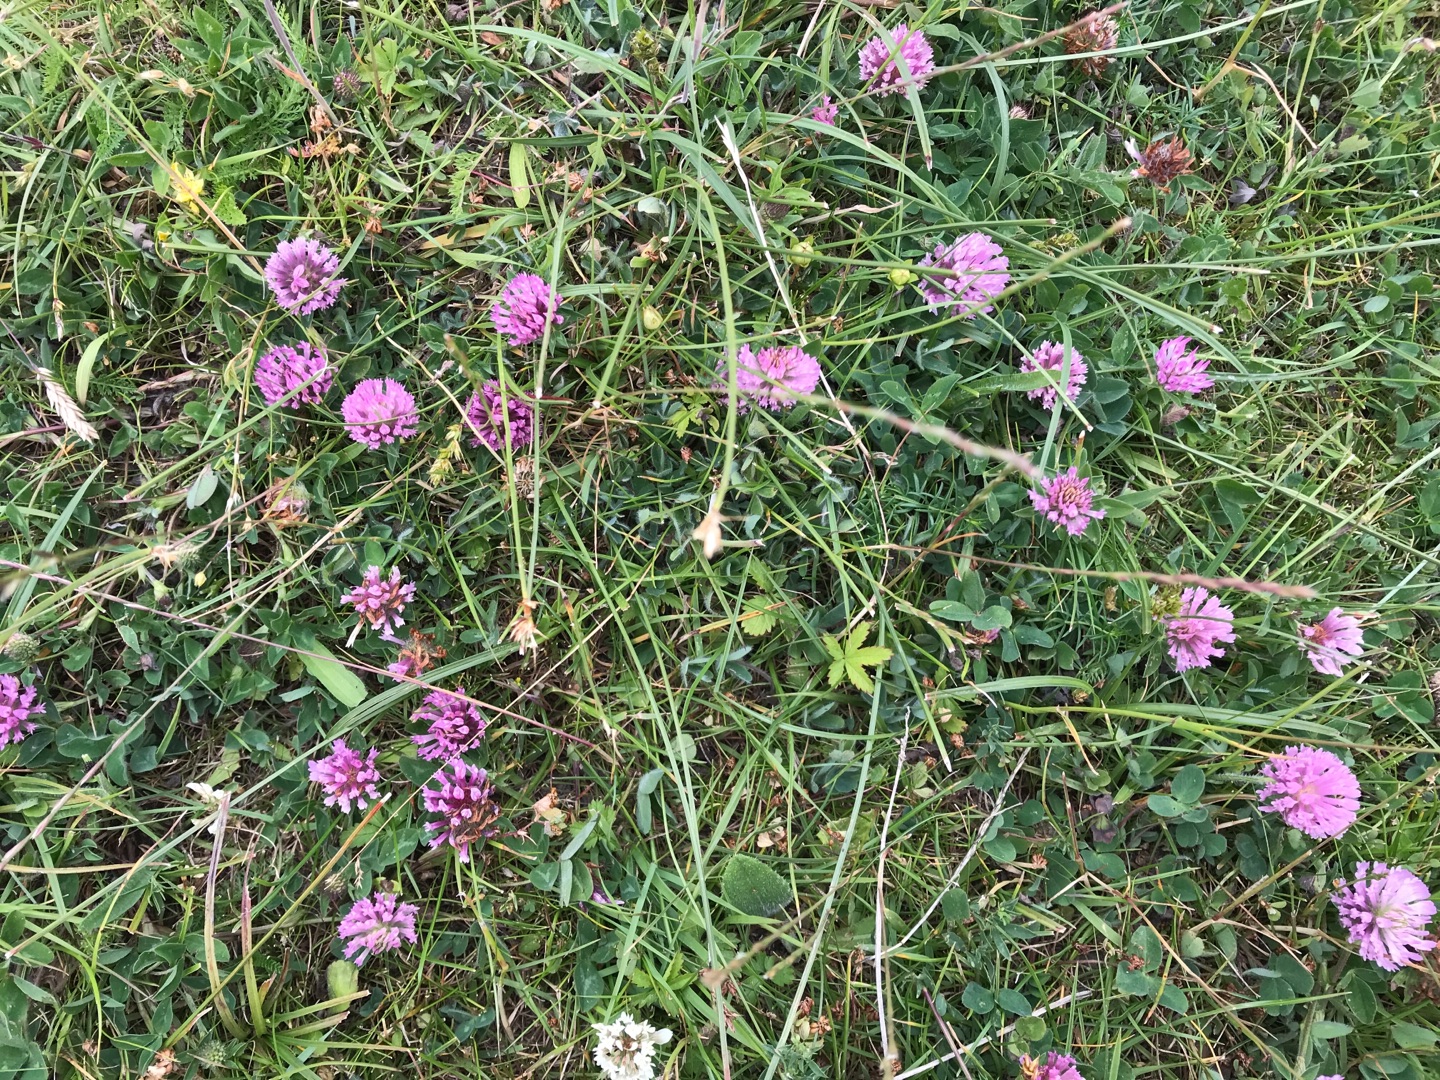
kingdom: Plantae
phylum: Tracheophyta
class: Magnoliopsida
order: Fabales
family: Fabaceae
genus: Trifolium
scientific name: Trifolium pratense
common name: Rød-kløver
